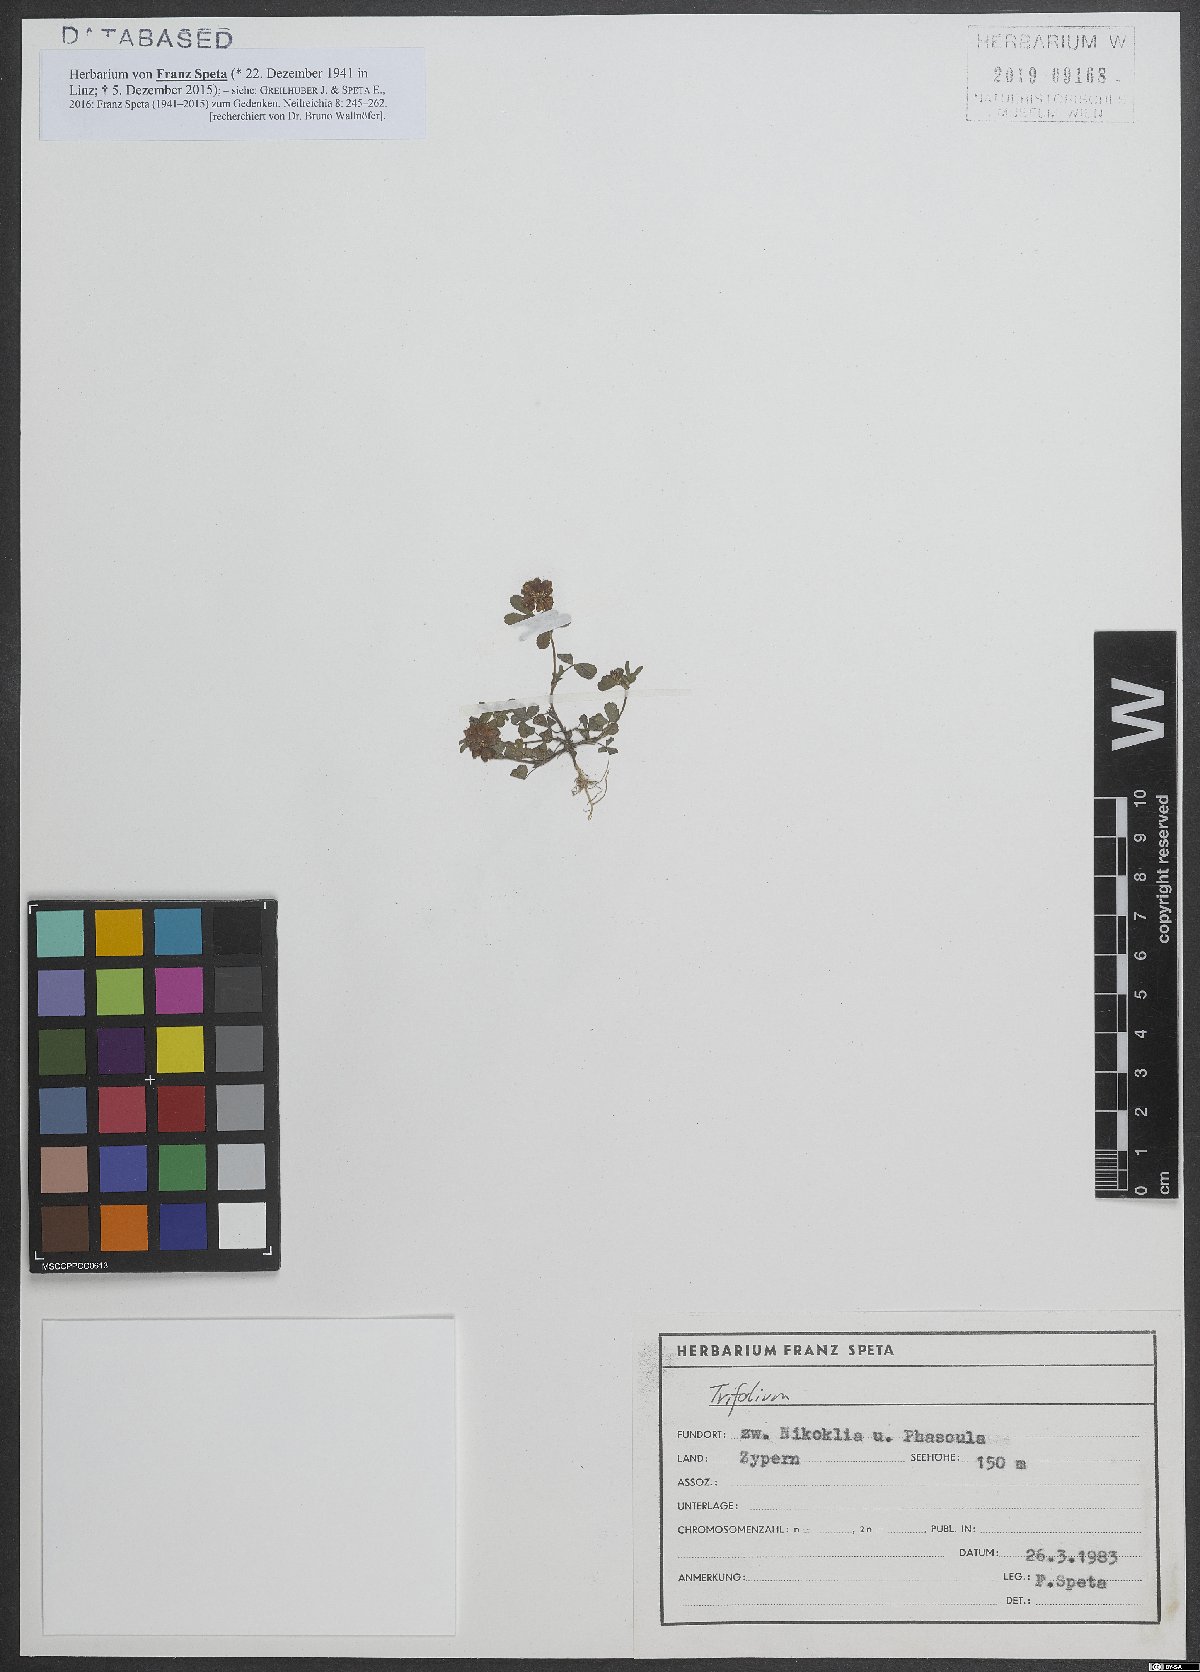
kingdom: Plantae
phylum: Tracheophyta
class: Magnoliopsida
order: Fabales
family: Fabaceae
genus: Trifolium
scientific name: Trifolium campestre
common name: Field clover
